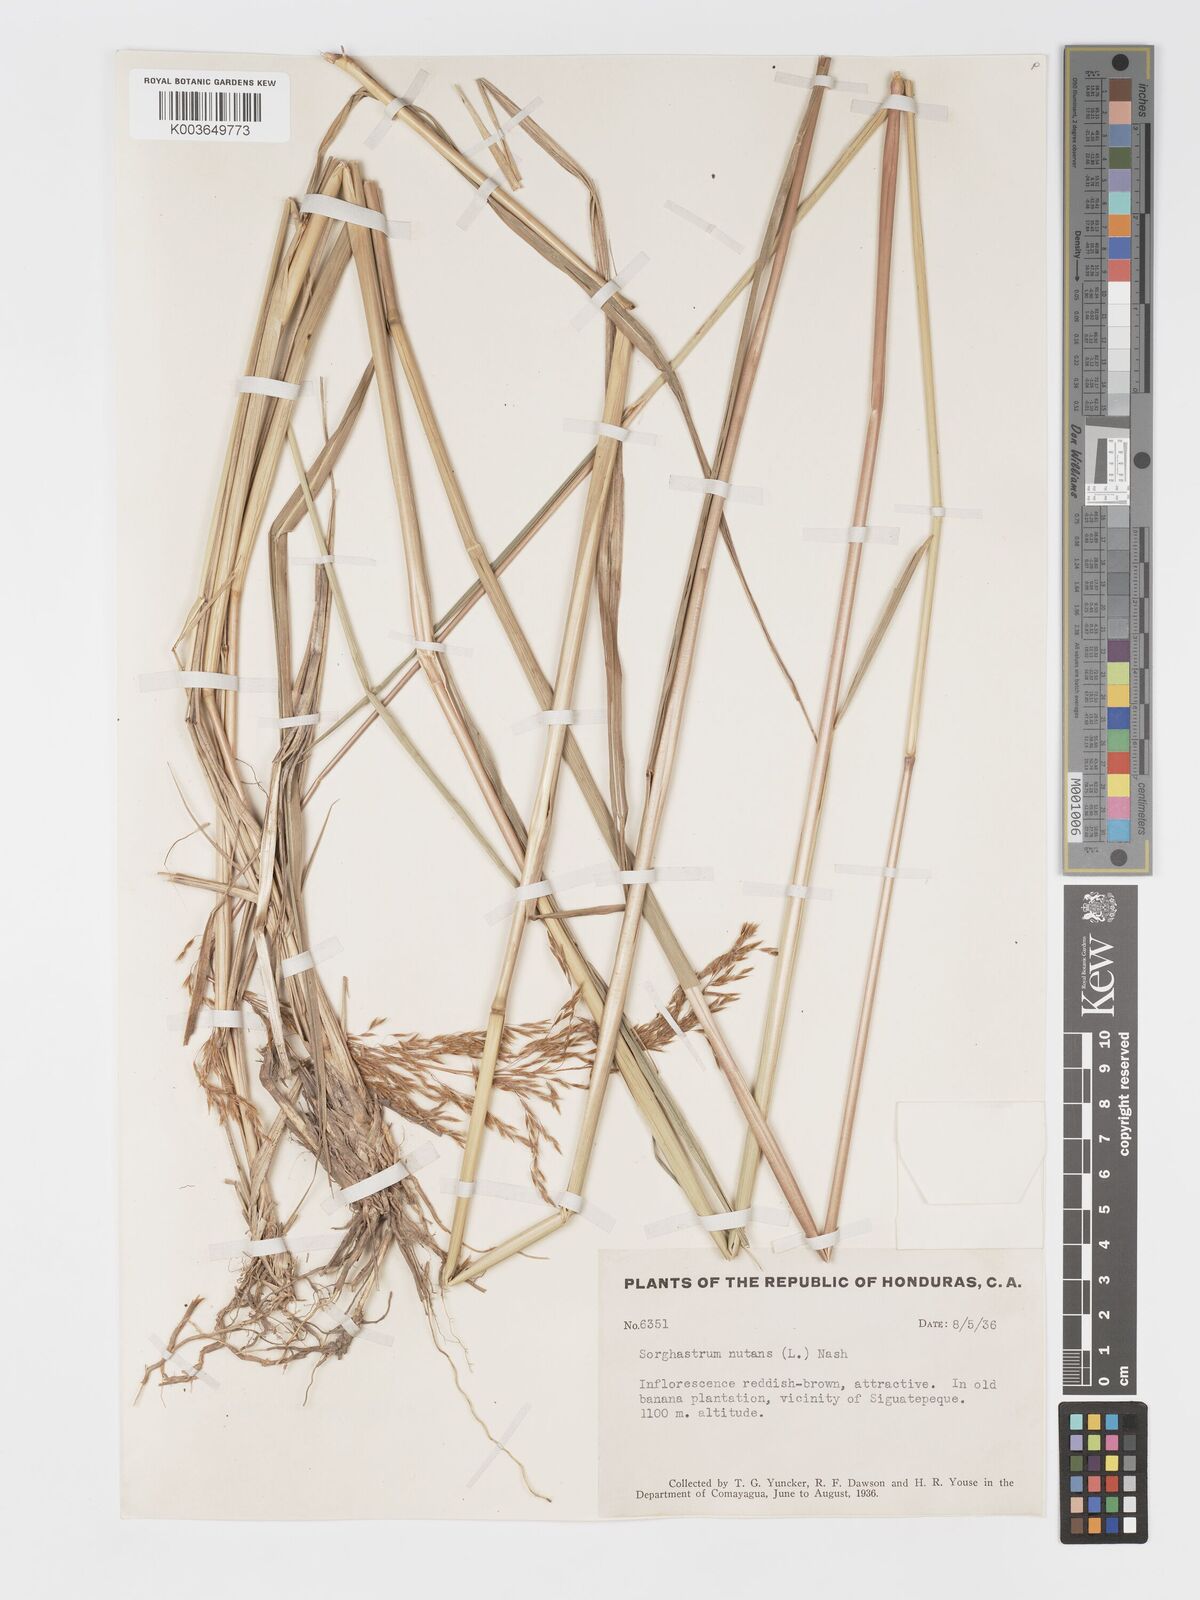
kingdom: Plantae
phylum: Tracheophyta
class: Liliopsida
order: Poales
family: Poaceae
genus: Sorghastrum
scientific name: Sorghastrum setosum
